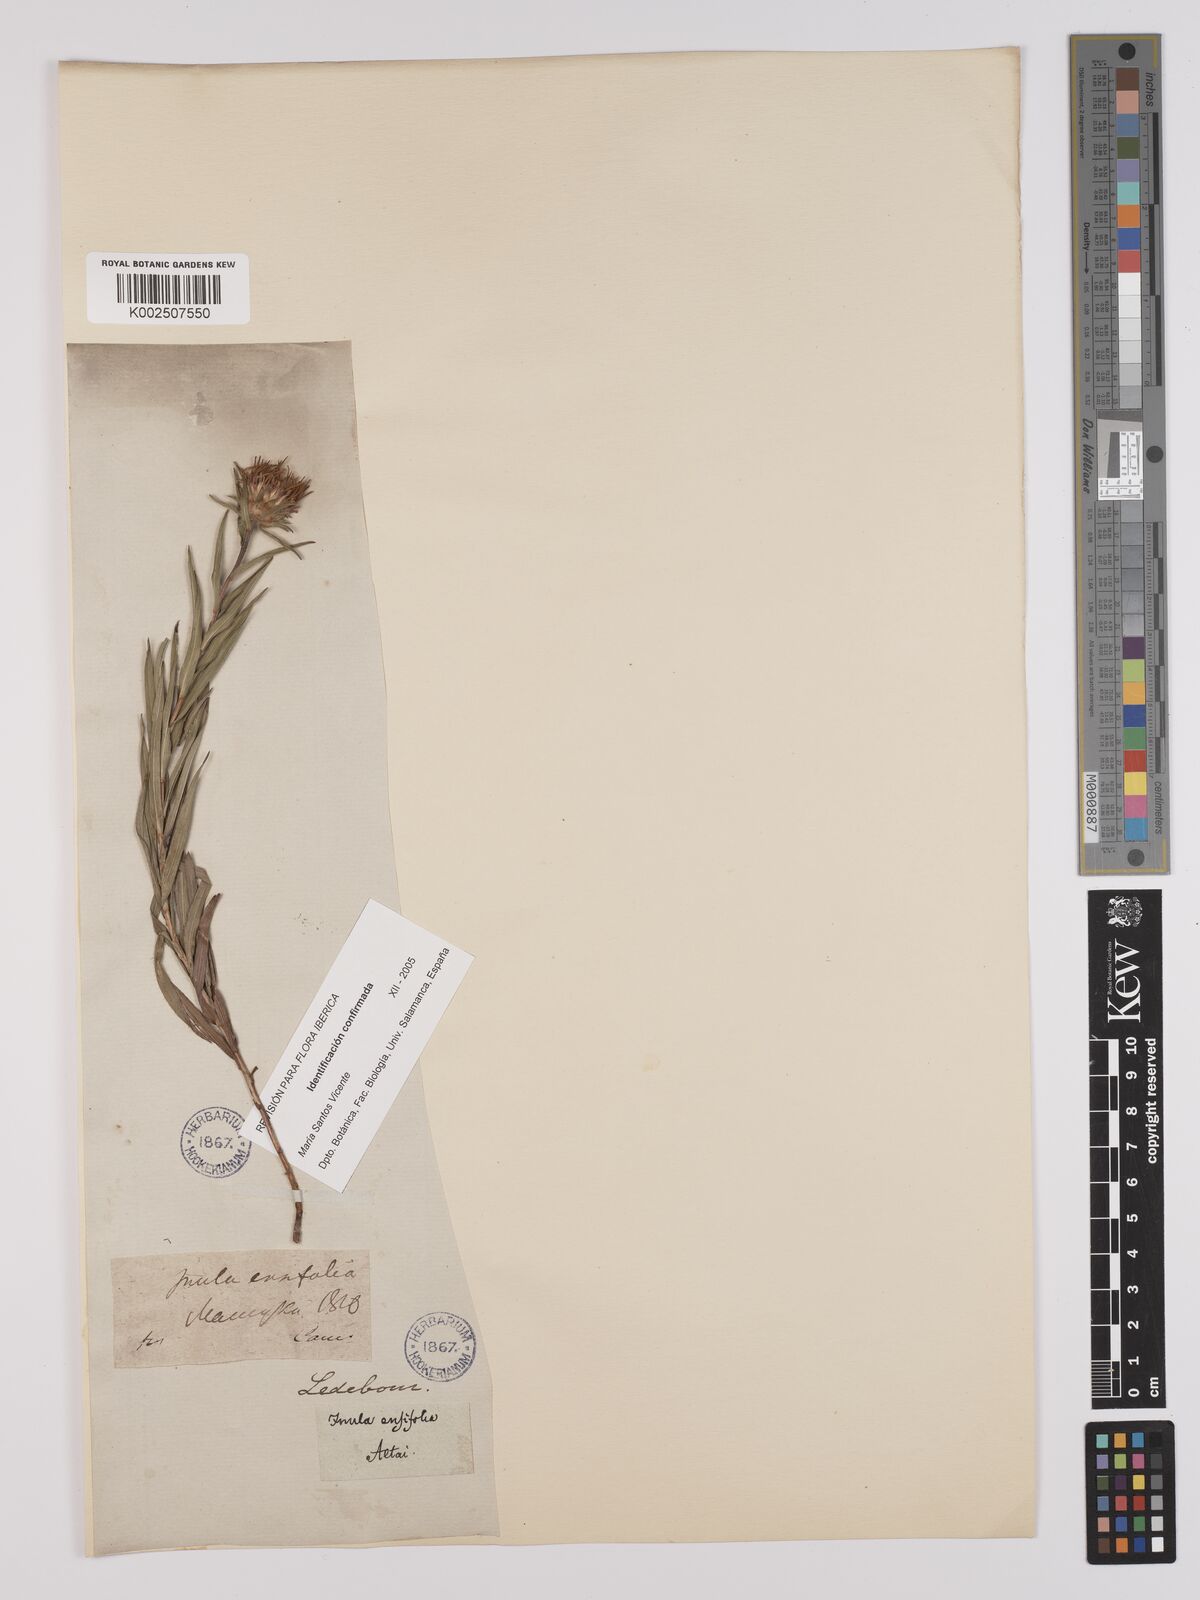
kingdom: Plantae
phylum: Tracheophyta
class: Magnoliopsida
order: Asterales
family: Asteraceae
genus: Pentanema
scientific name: Pentanema ensifolium
